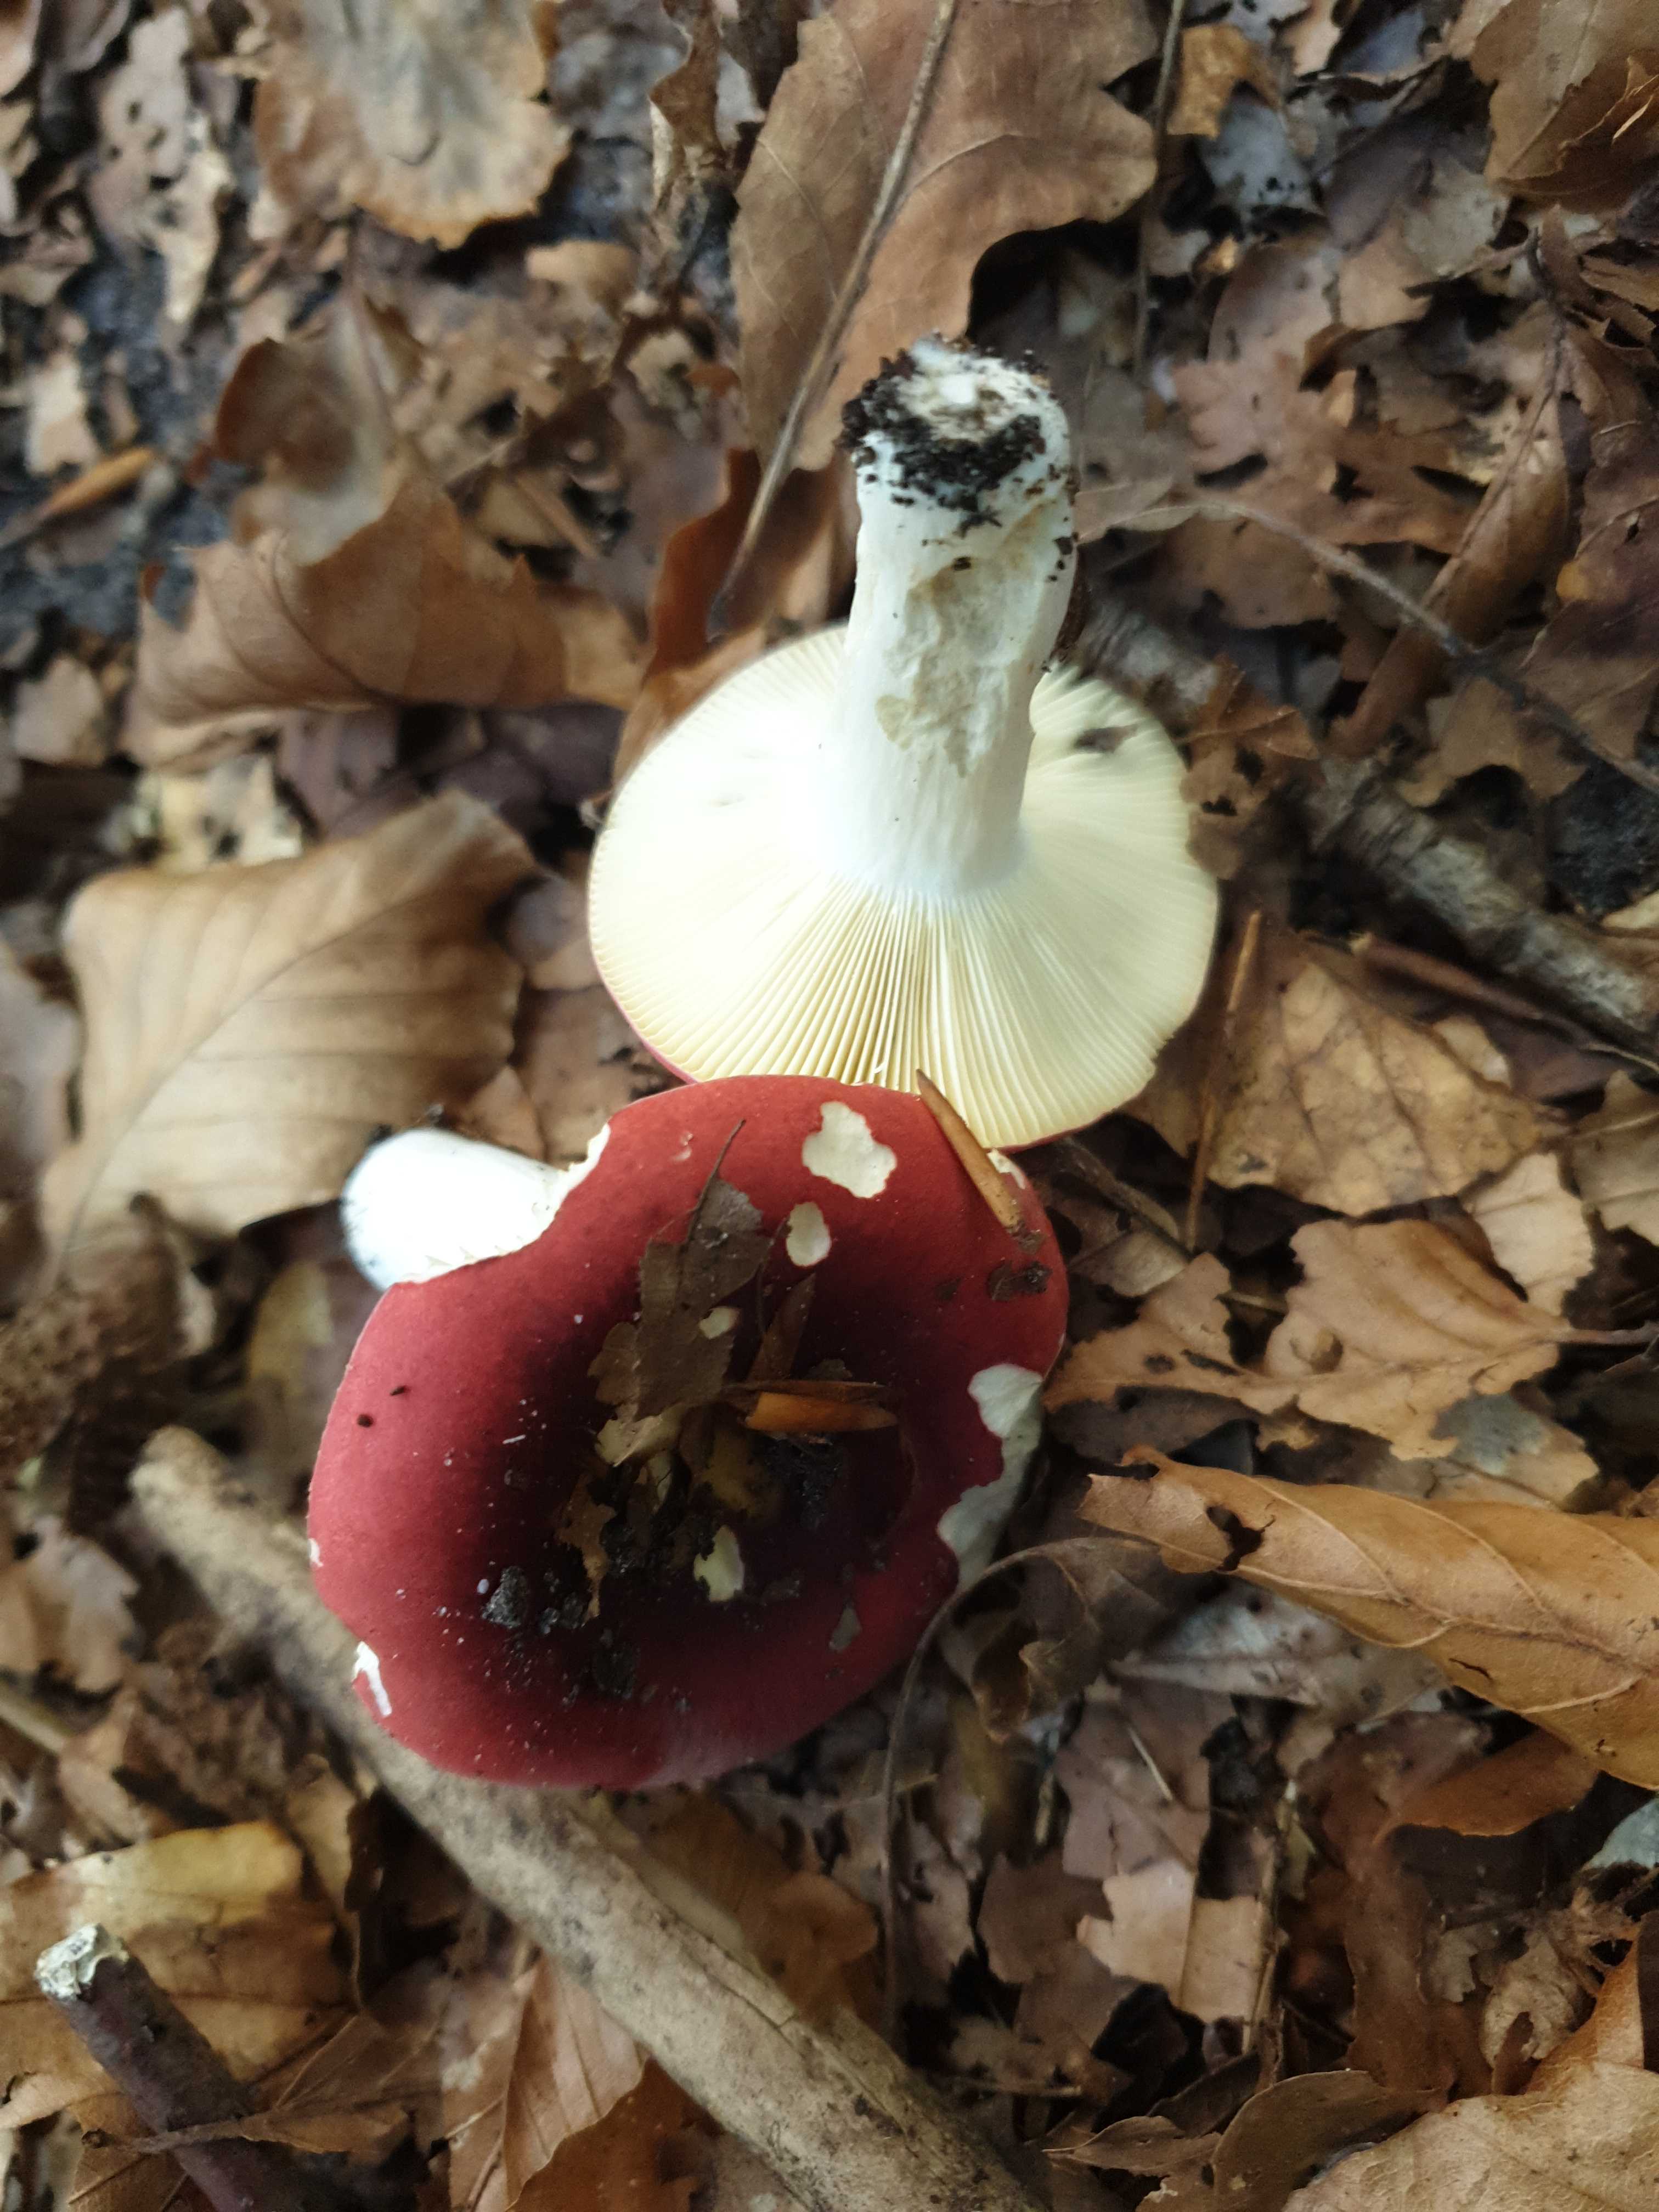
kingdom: Fungi
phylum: Basidiomycota
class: Agaricomycetes
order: Russulales
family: Russulaceae
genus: Russula
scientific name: Russula atropurpurea
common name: purpurbroget skørhat
